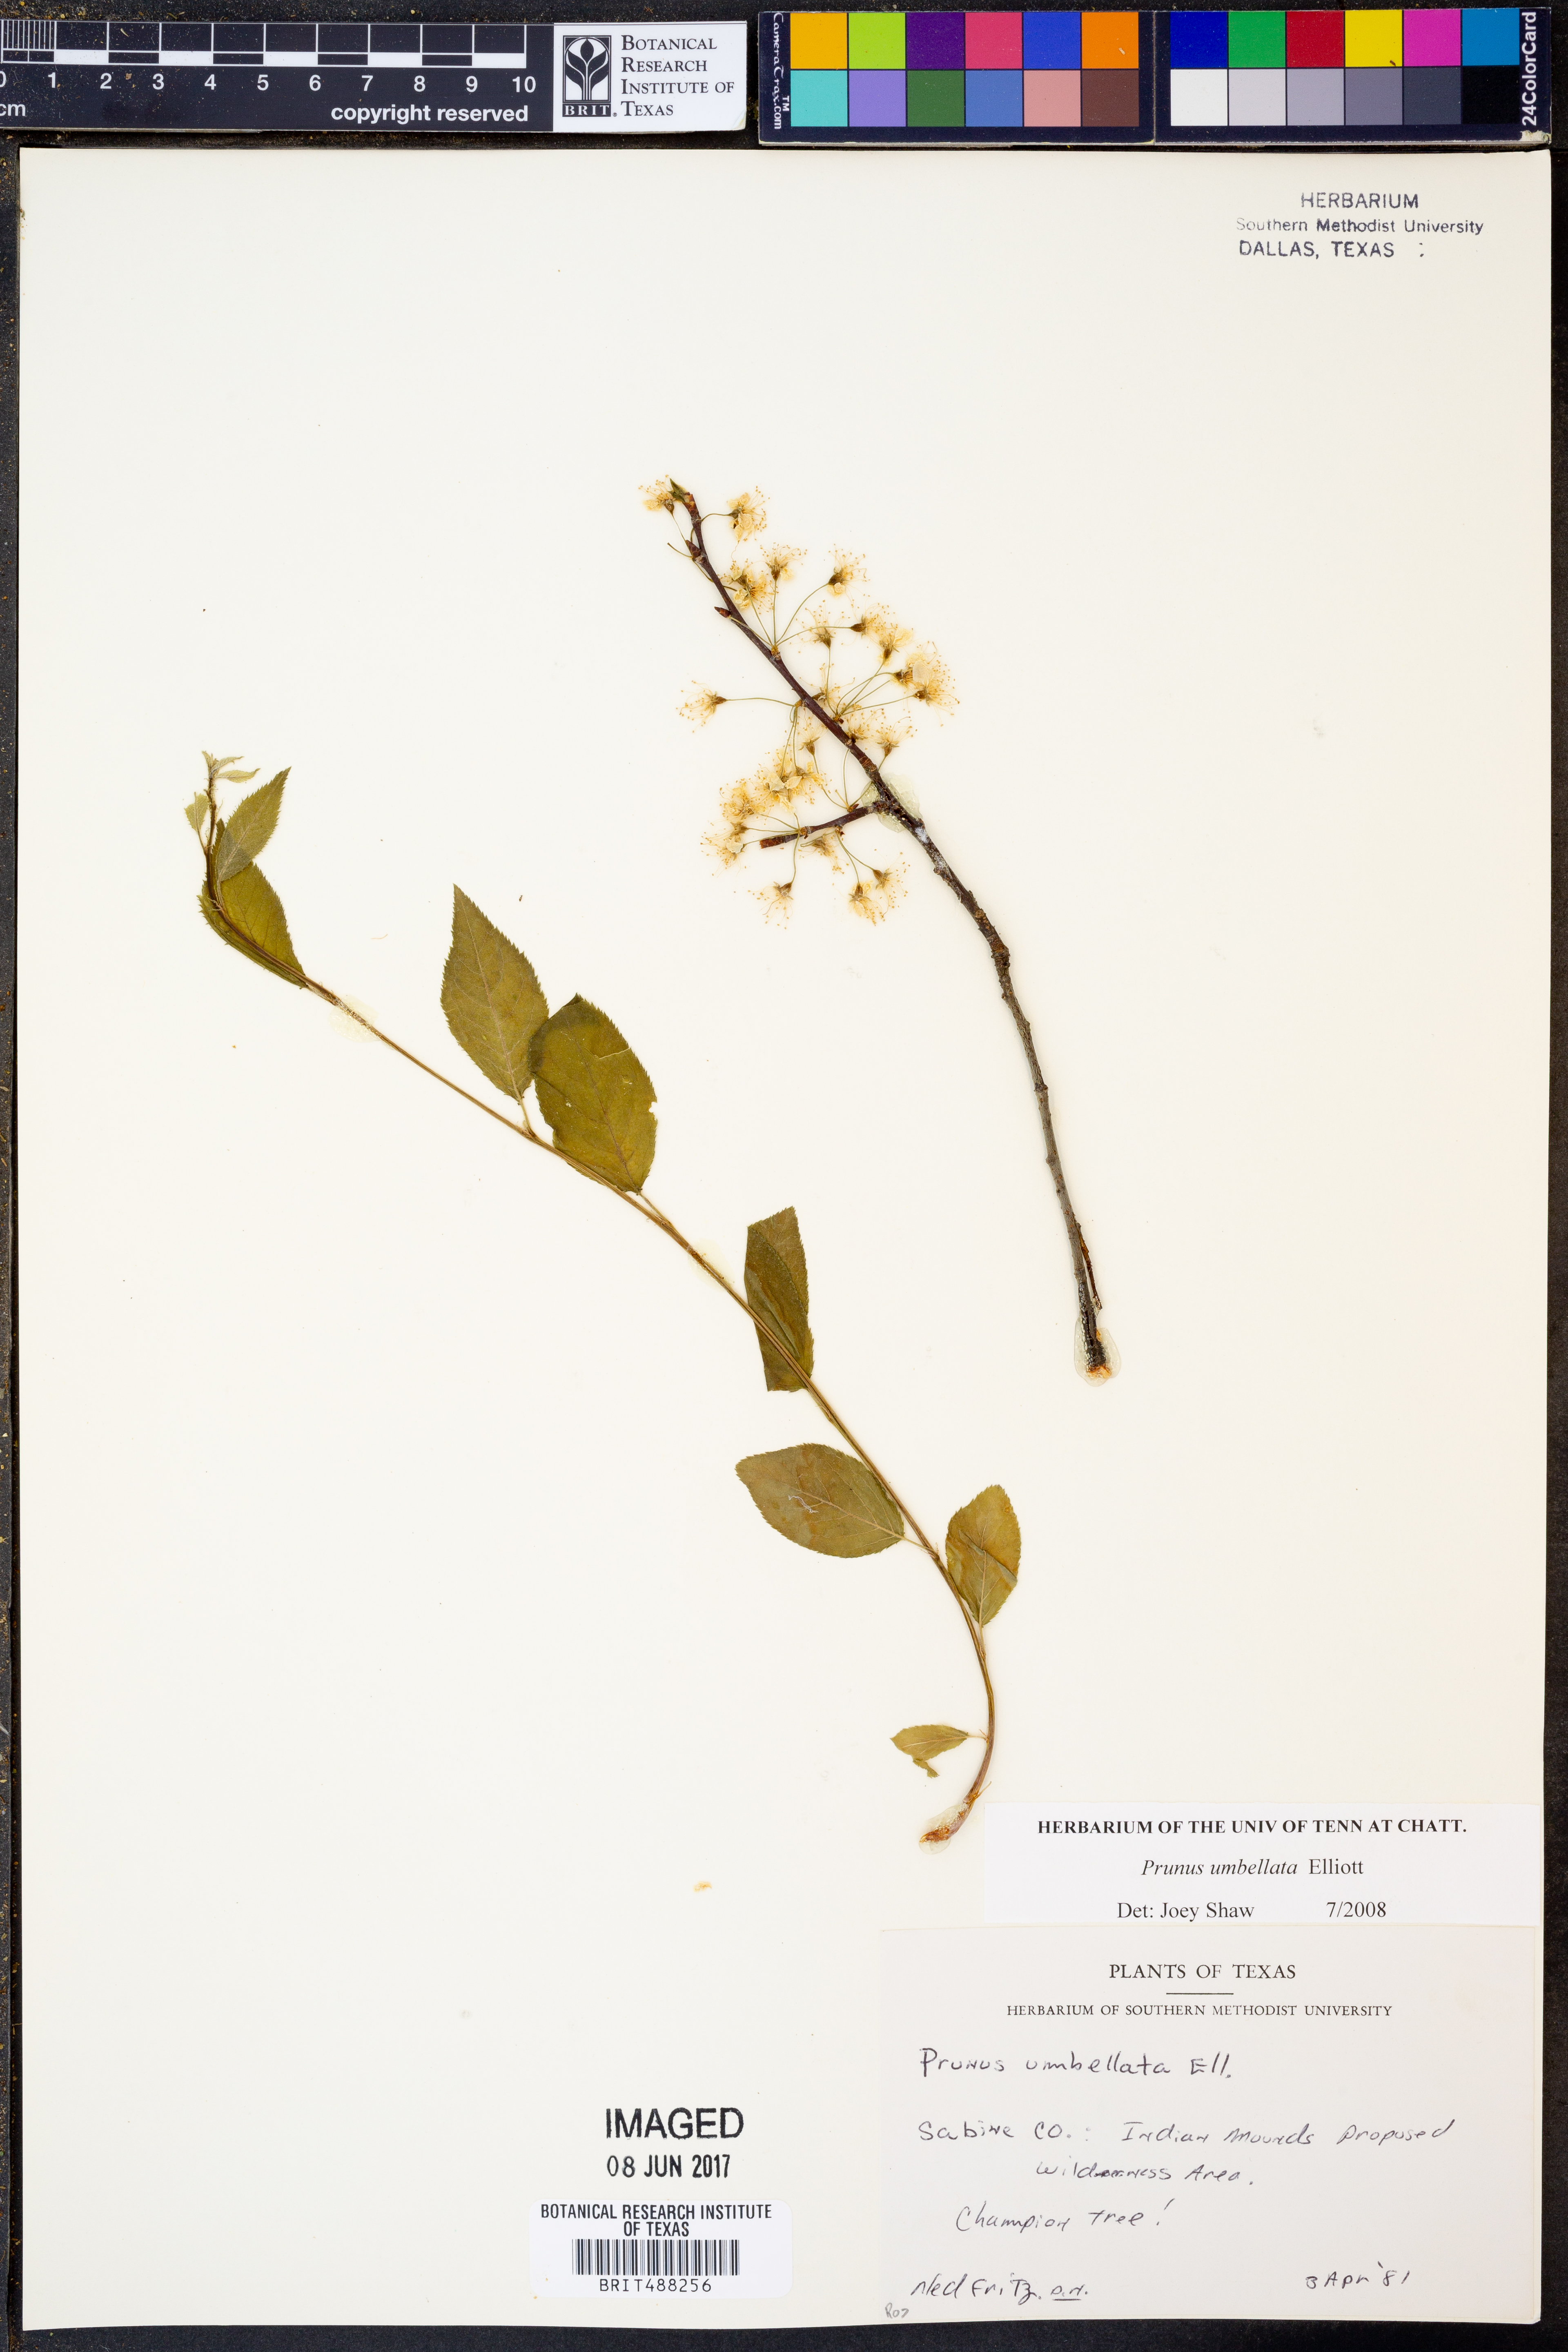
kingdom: Plantae
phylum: Tracheophyta
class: Magnoliopsida
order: Rosales
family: Rosaceae
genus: Prunus
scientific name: Prunus umbellata
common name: Allegheny plum
